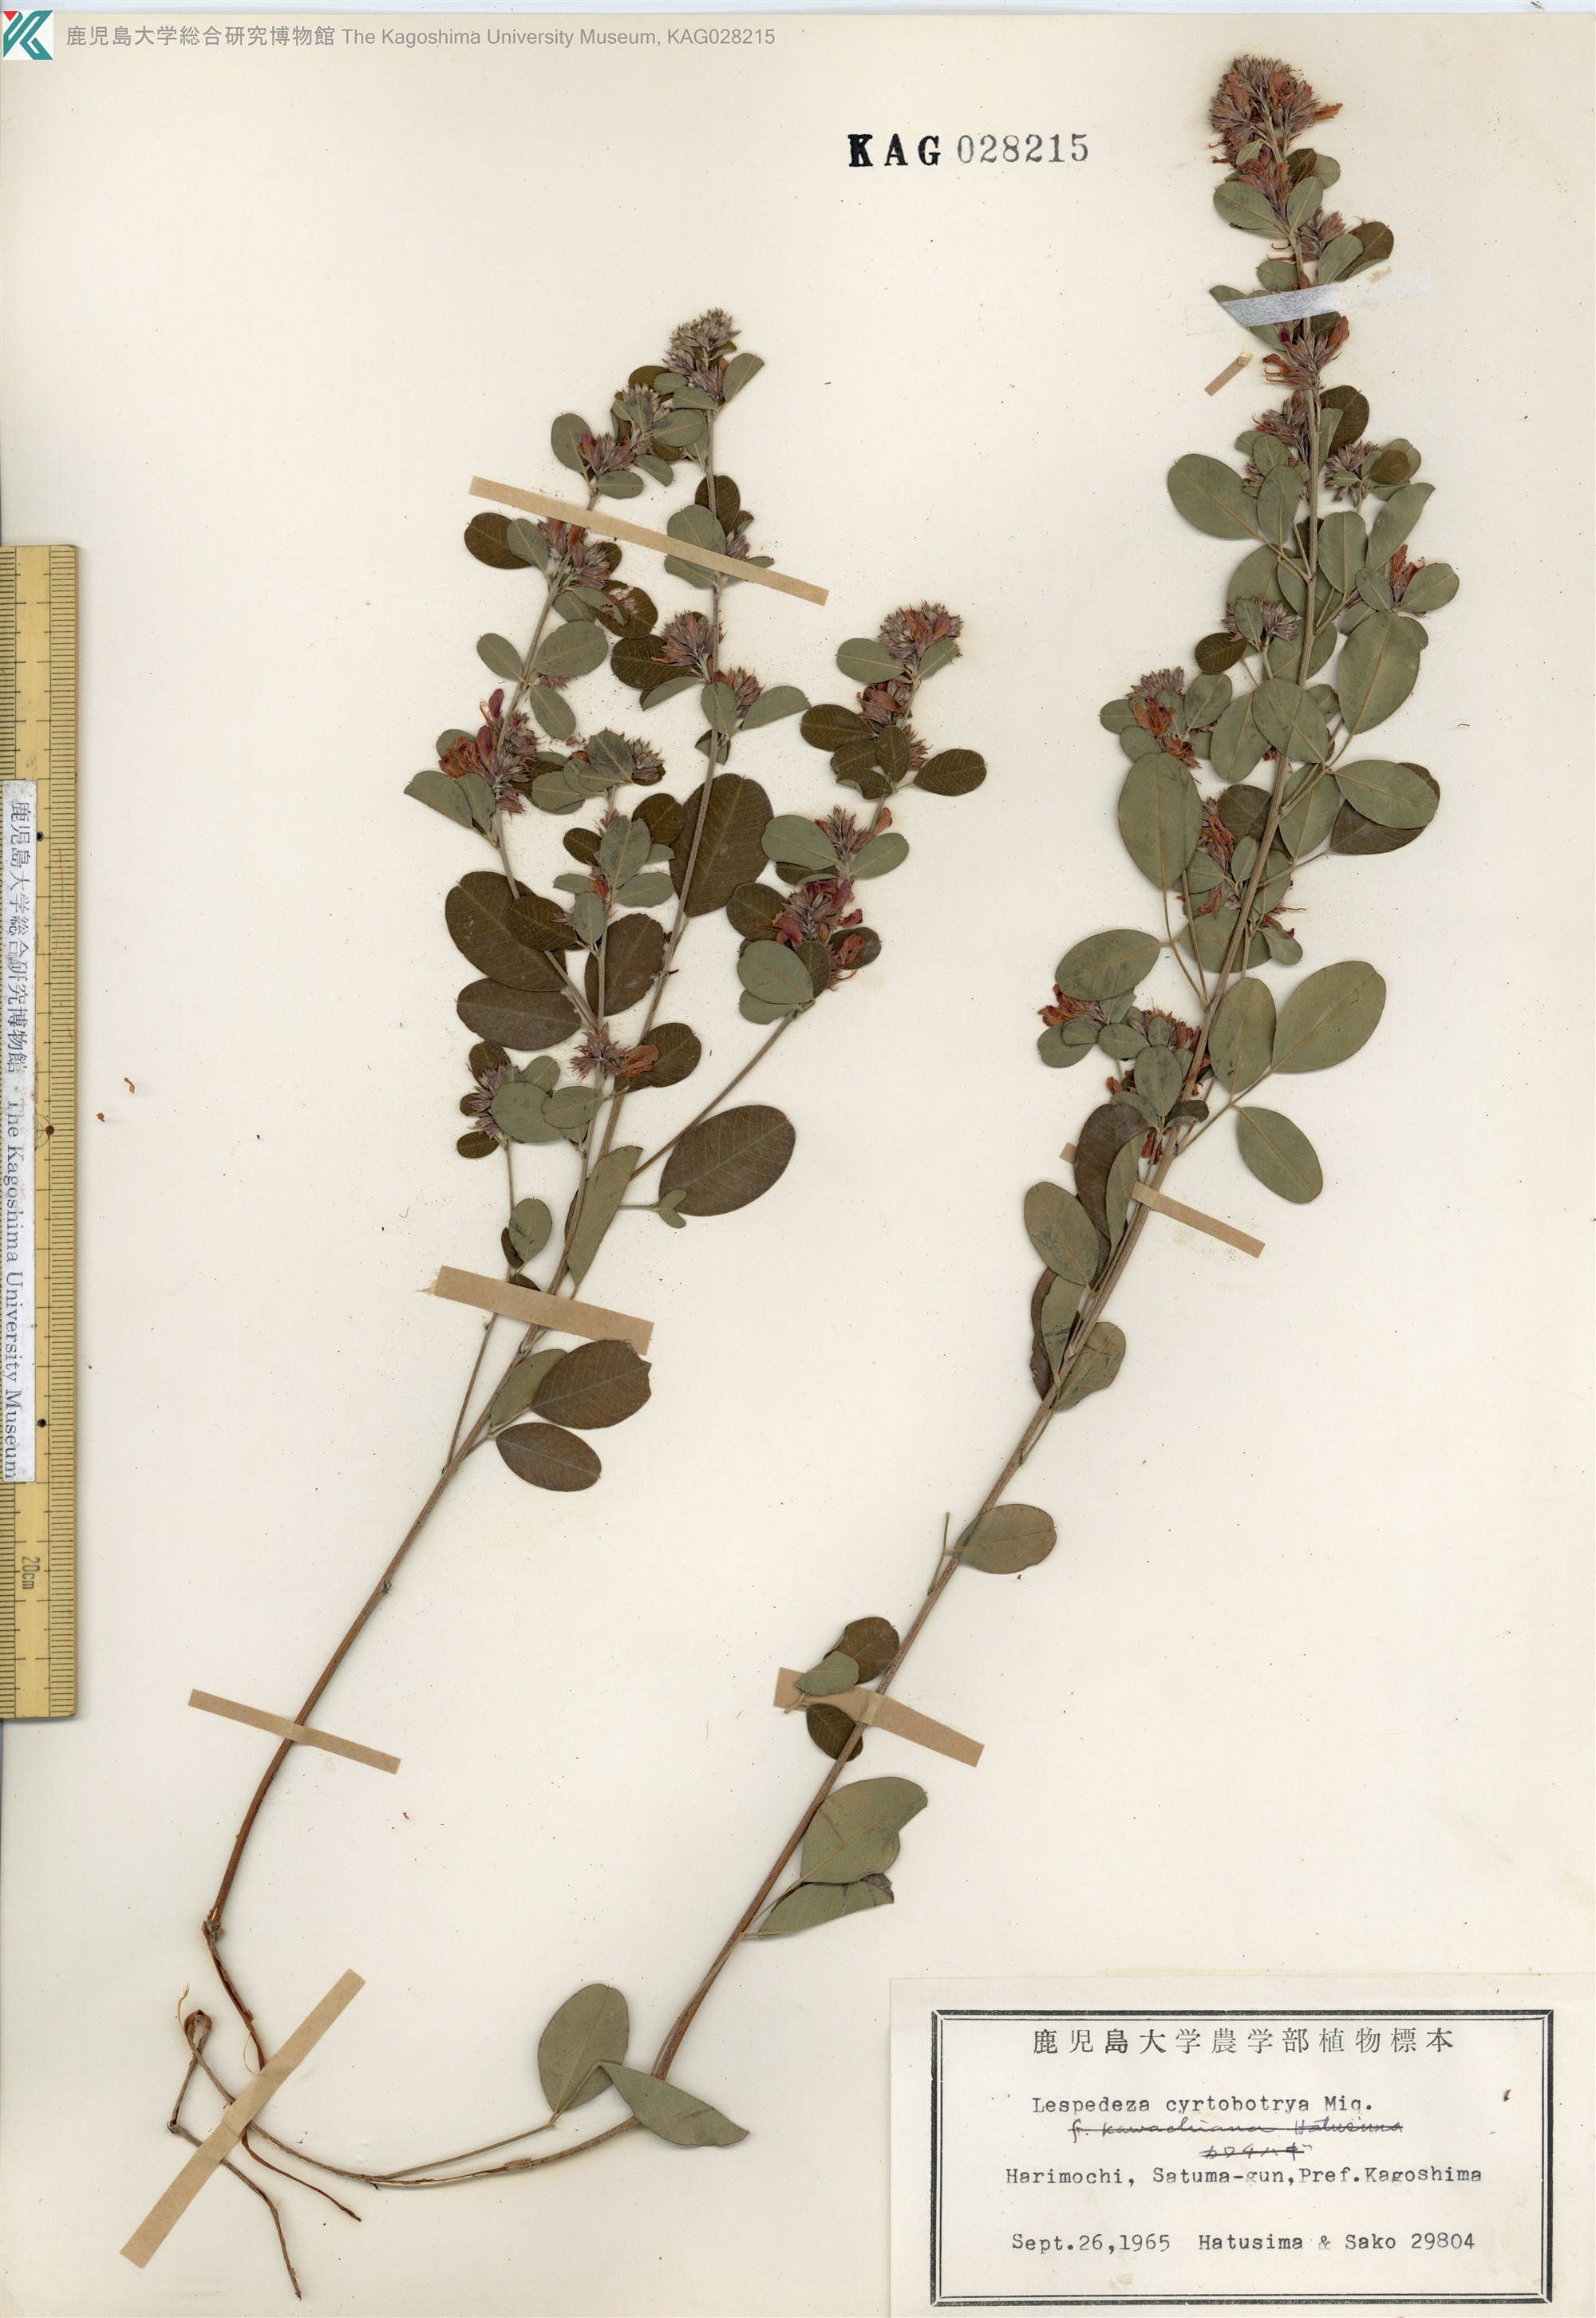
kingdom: Plantae
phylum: Tracheophyta
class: Magnoliopsida
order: Fabales
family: Fabaceae
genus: Lespedeza
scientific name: Lespedeza cyrtobotrya
